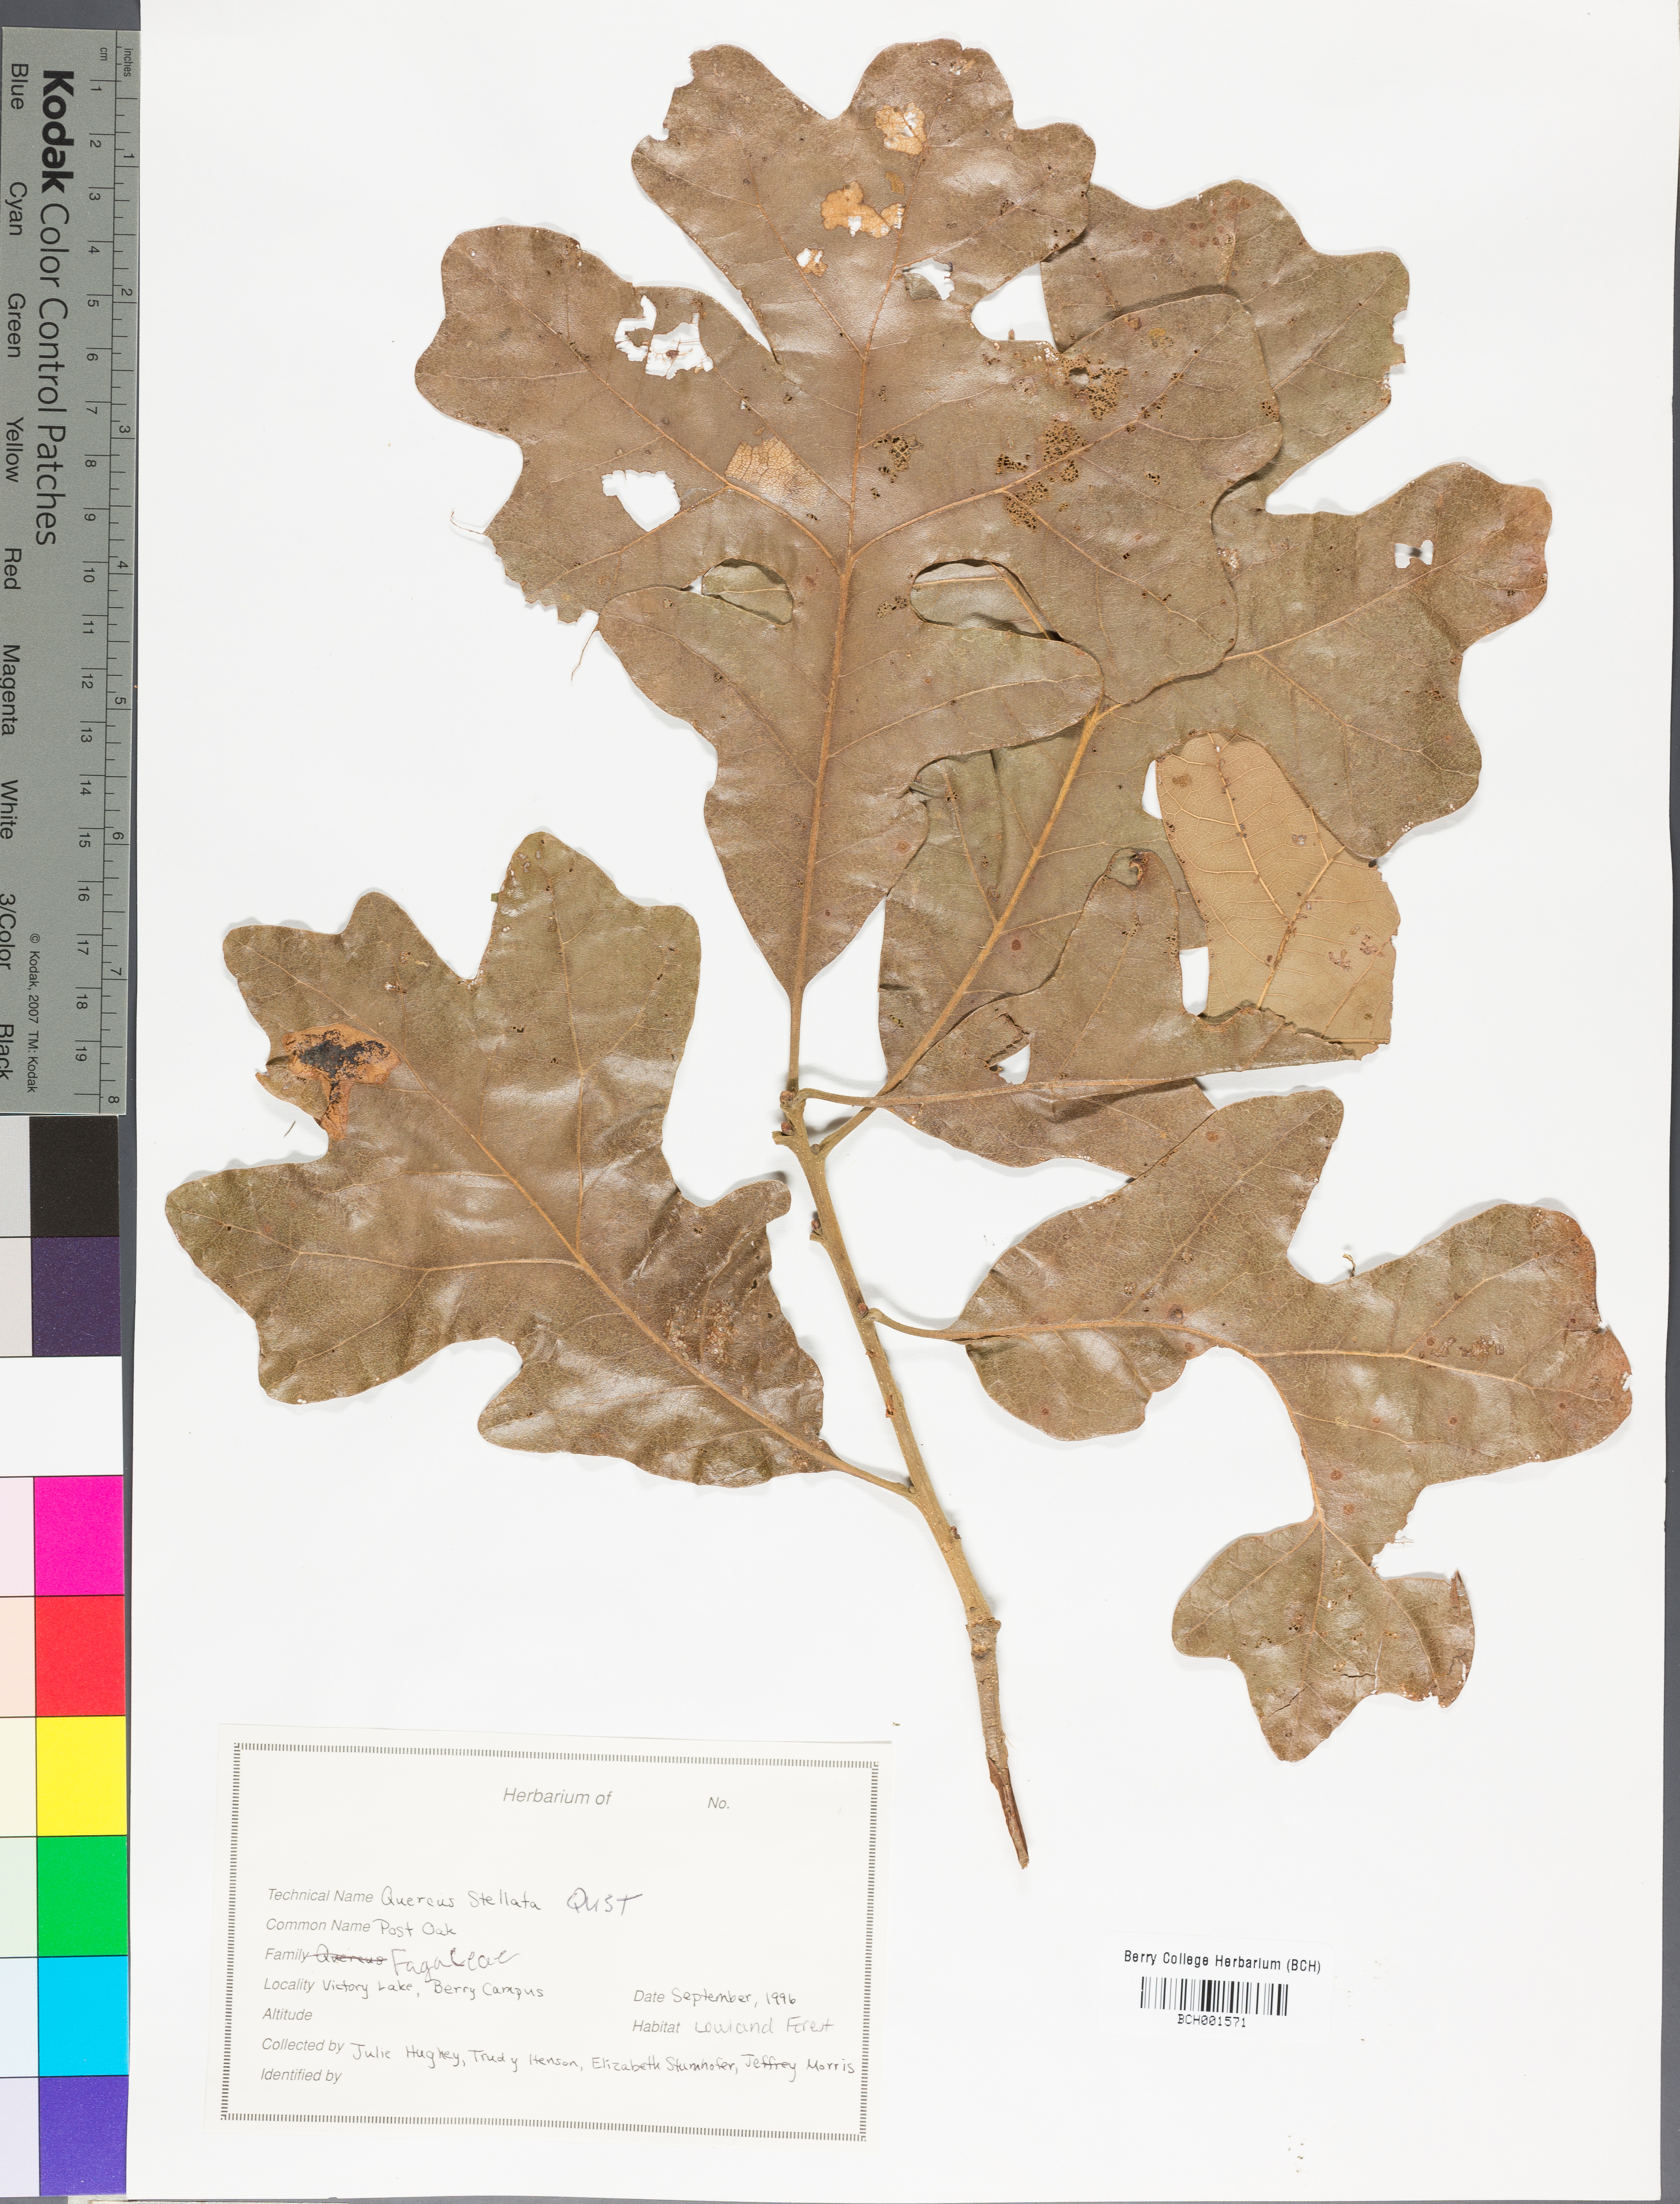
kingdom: Plantae
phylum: Tracheophyta
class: Magnoliopsida
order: Fagales
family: Fagaceae
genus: Quercus
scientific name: Quercus stellata
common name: Post oak
